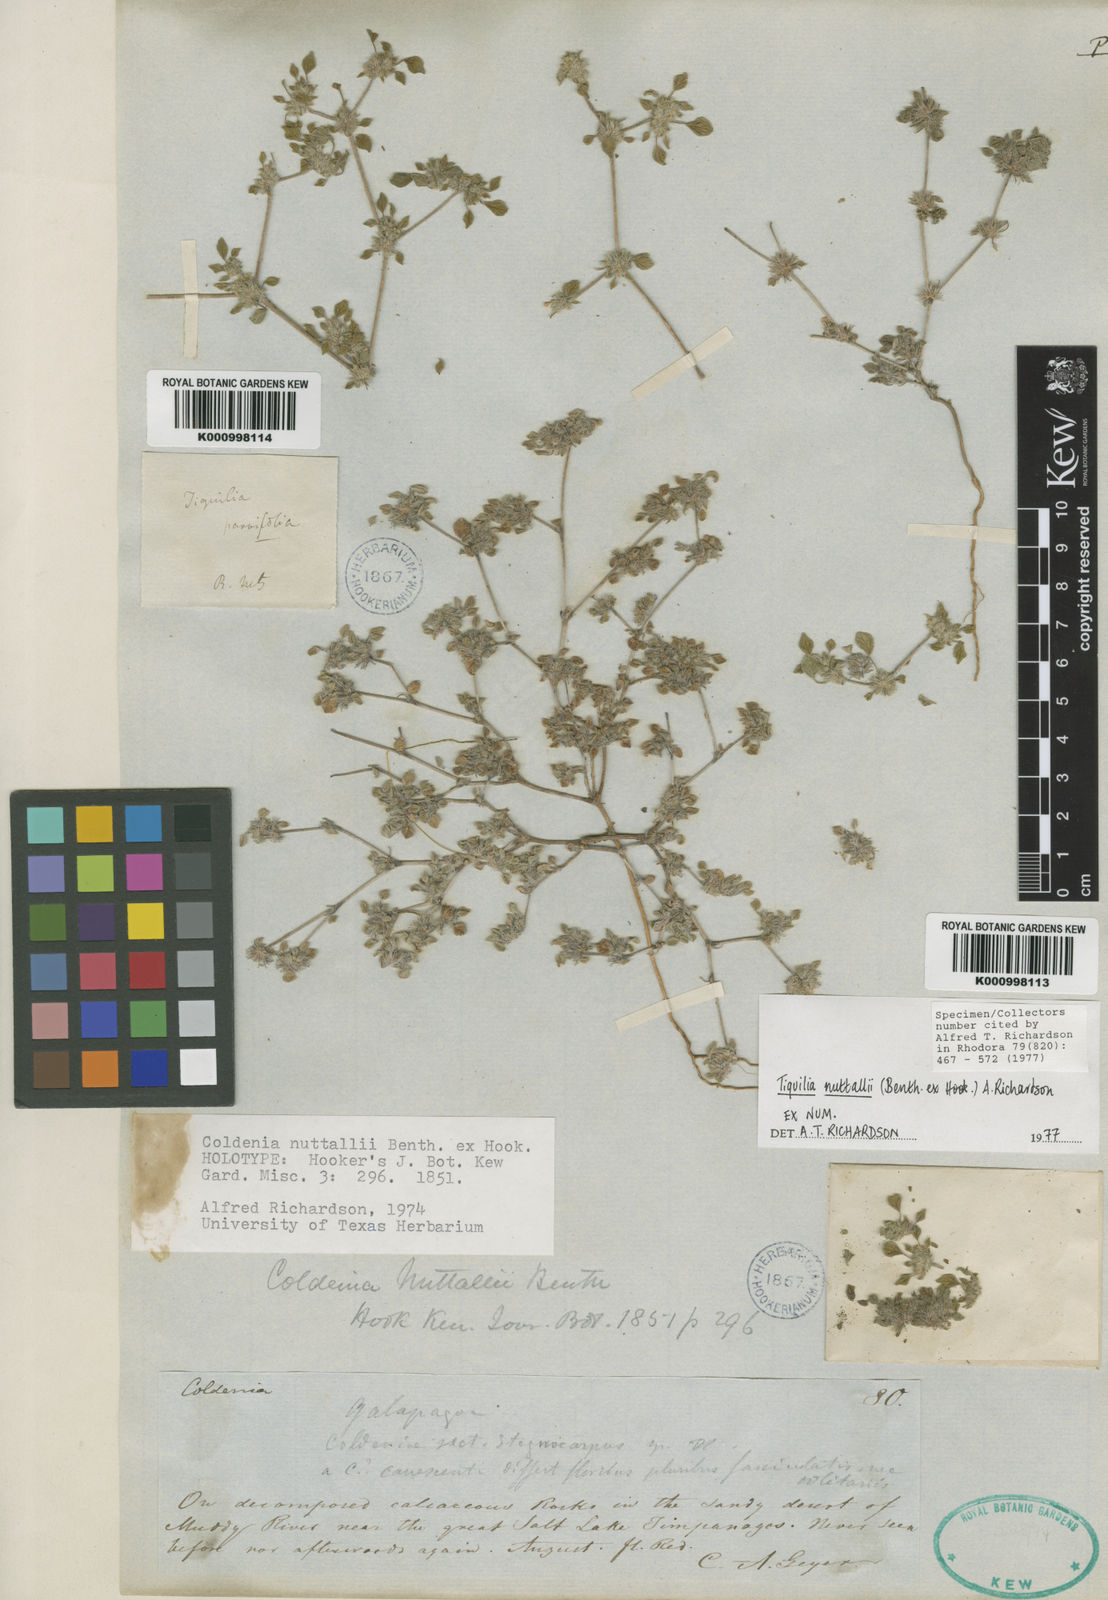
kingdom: Plantae
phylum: Tracheophyta
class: Magnoliopsida
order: Boraginales
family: Ehretiaceae
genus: Tiquilia
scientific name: Tiquilia nuttallii
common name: Rosette tiquilia
